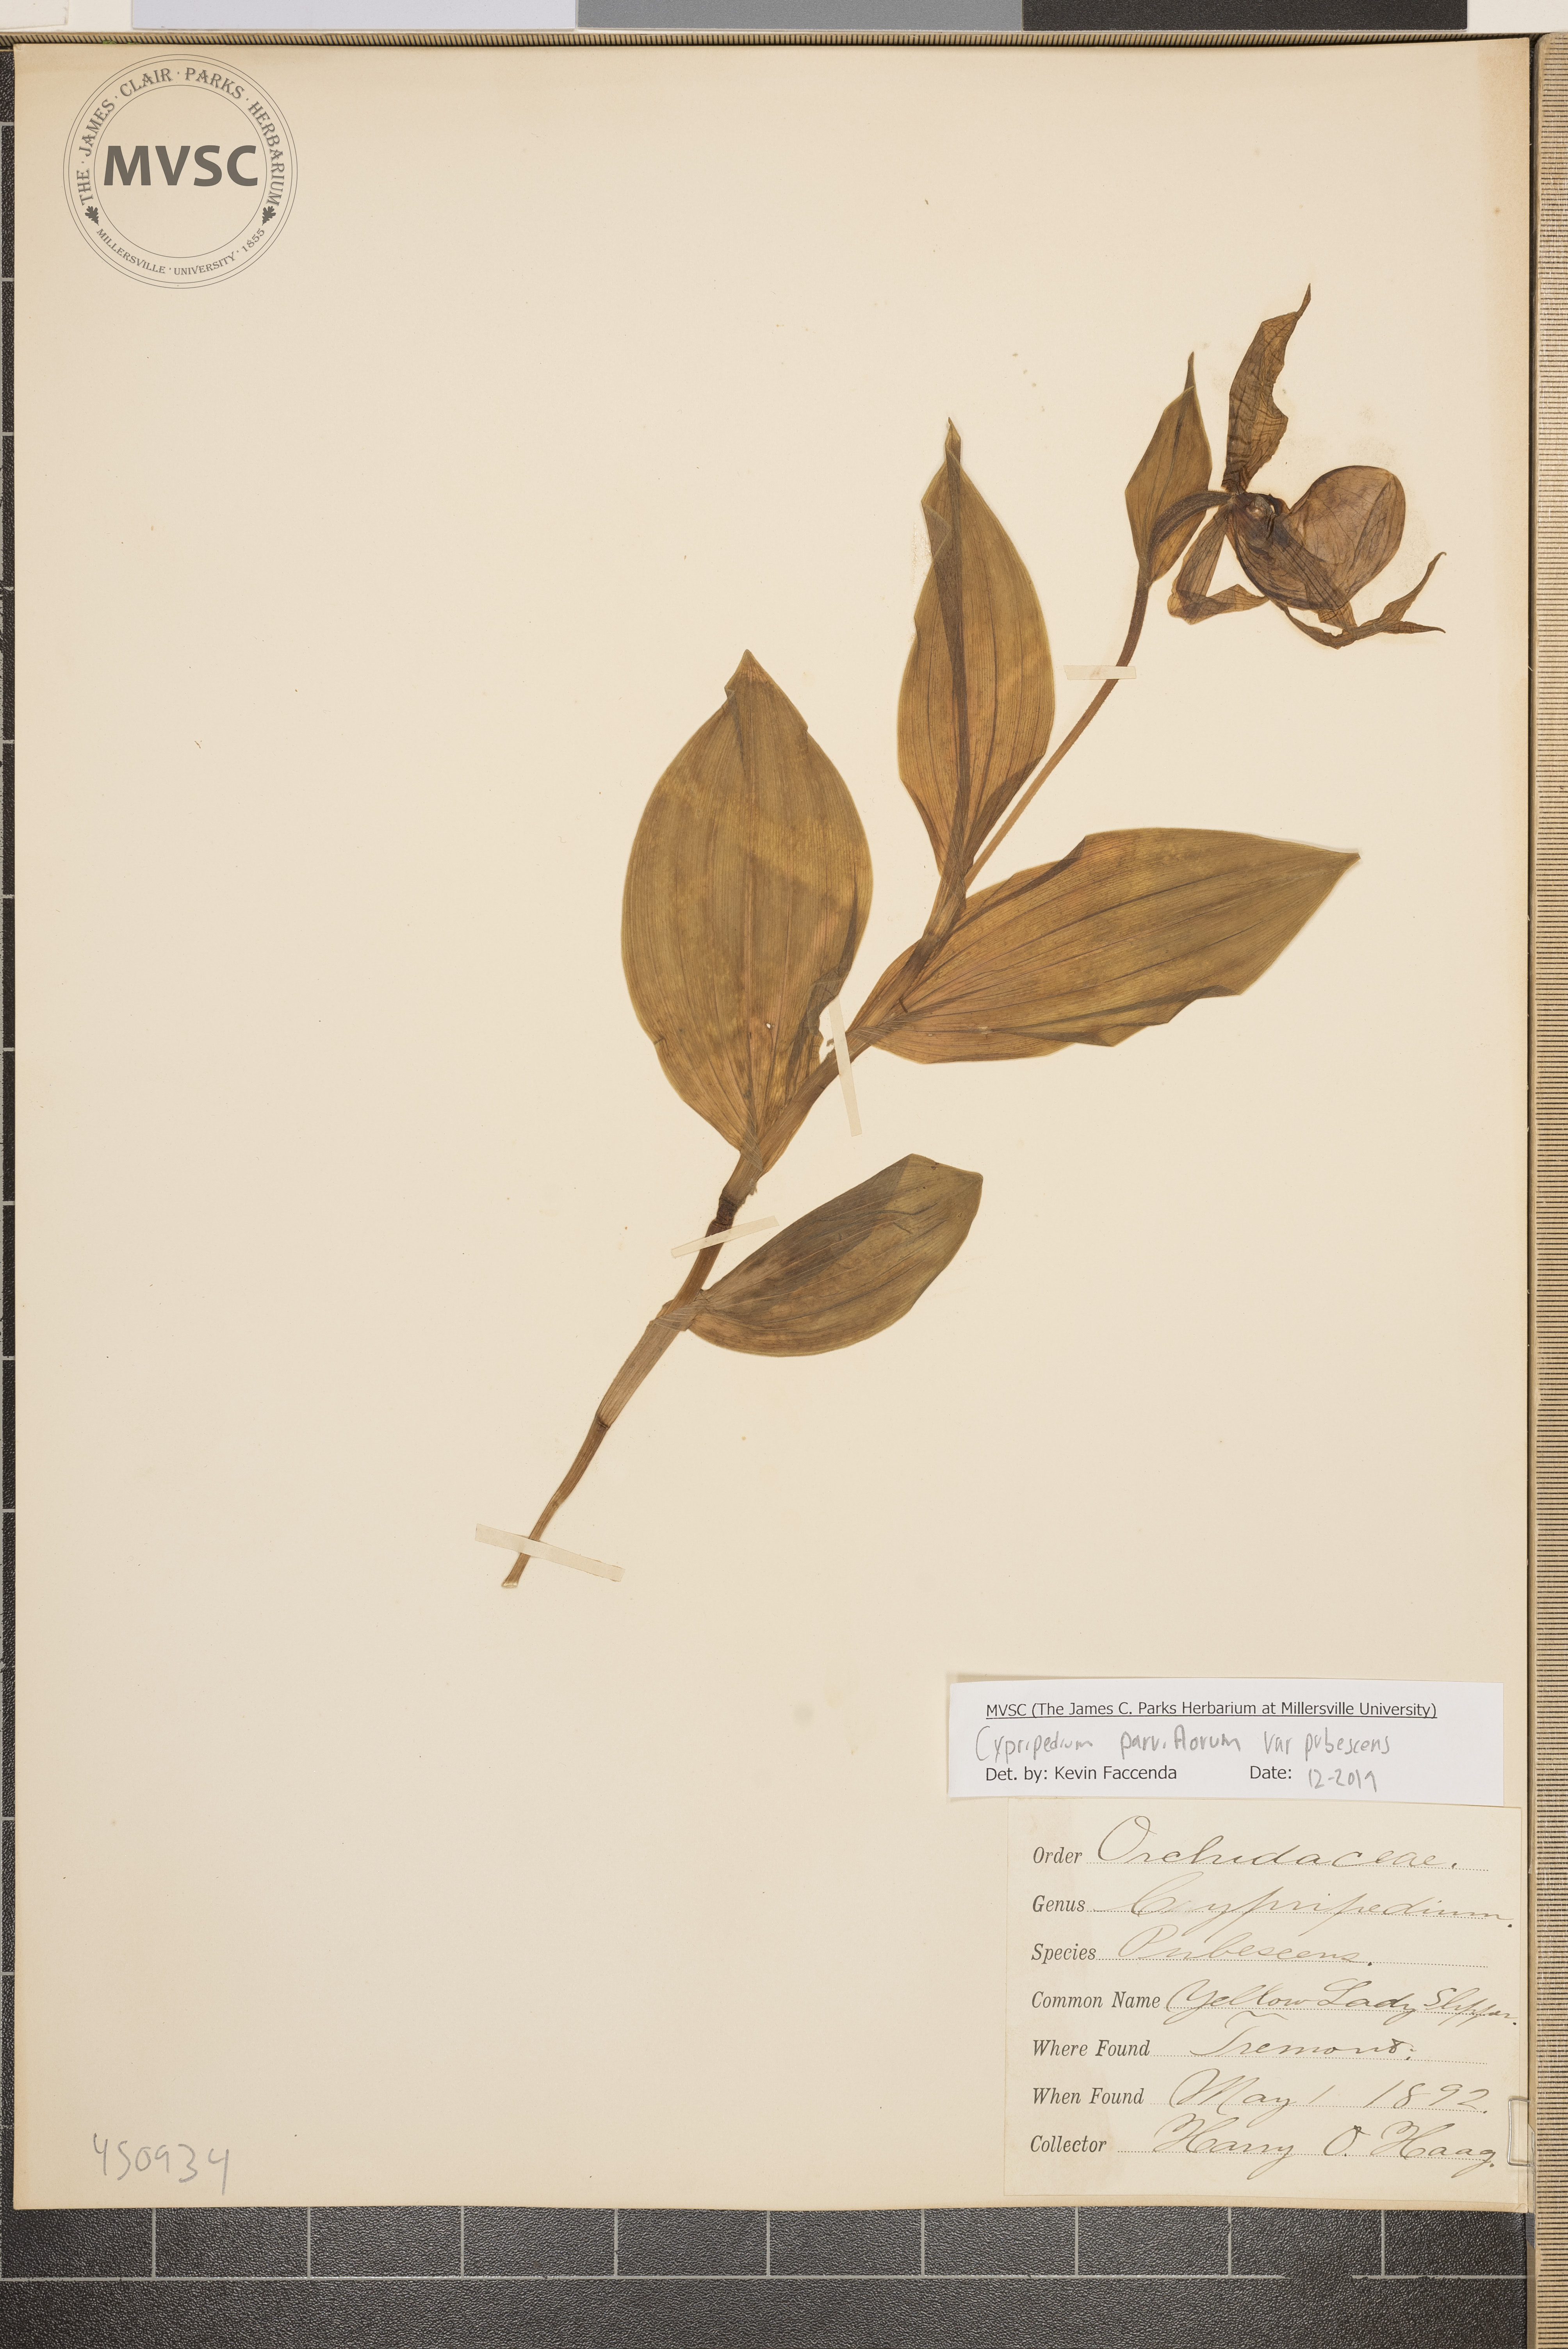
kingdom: Plantae
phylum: Tracheophyta
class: Liliopsida
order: Asparagales
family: Orchidaceae
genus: Cypripedium
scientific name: Cypripedium parviflorum
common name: American yellow lady's-slipper
